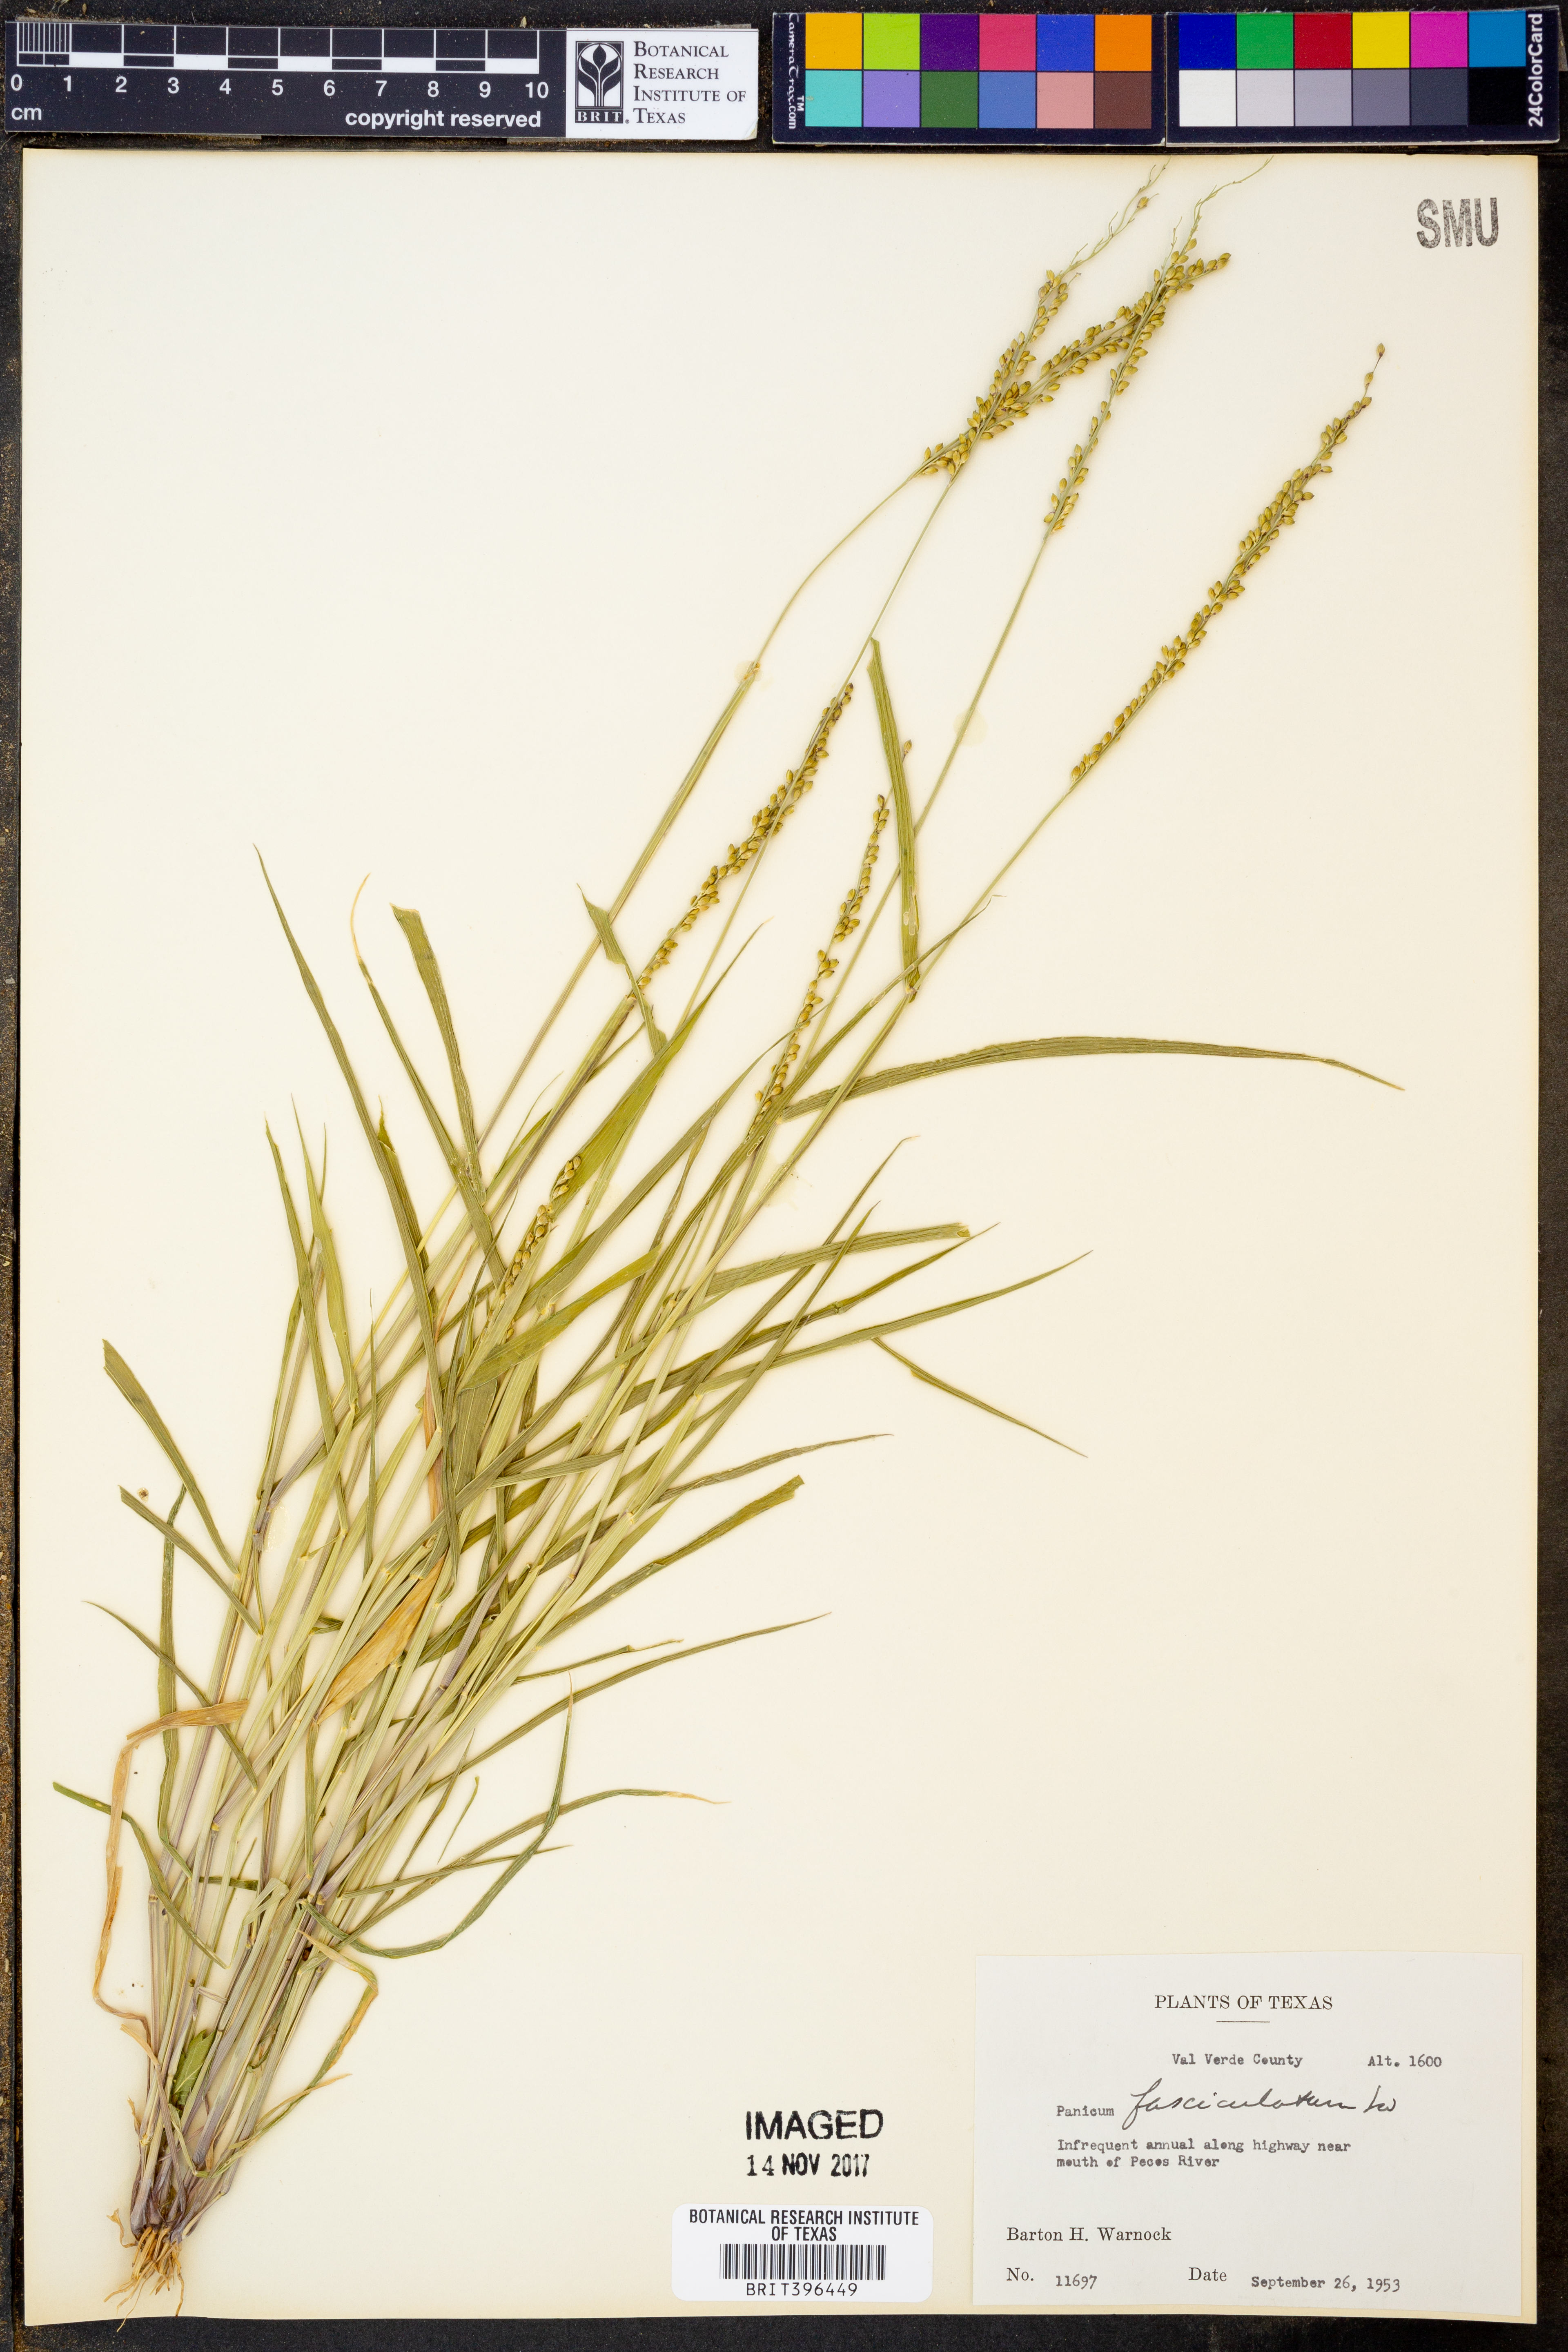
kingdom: Plantae
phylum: Tracheophyta
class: Liliopsida
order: Poales
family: Poaceae
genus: Urochloa
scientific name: Urochloa fusca
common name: Browntop signal grass
